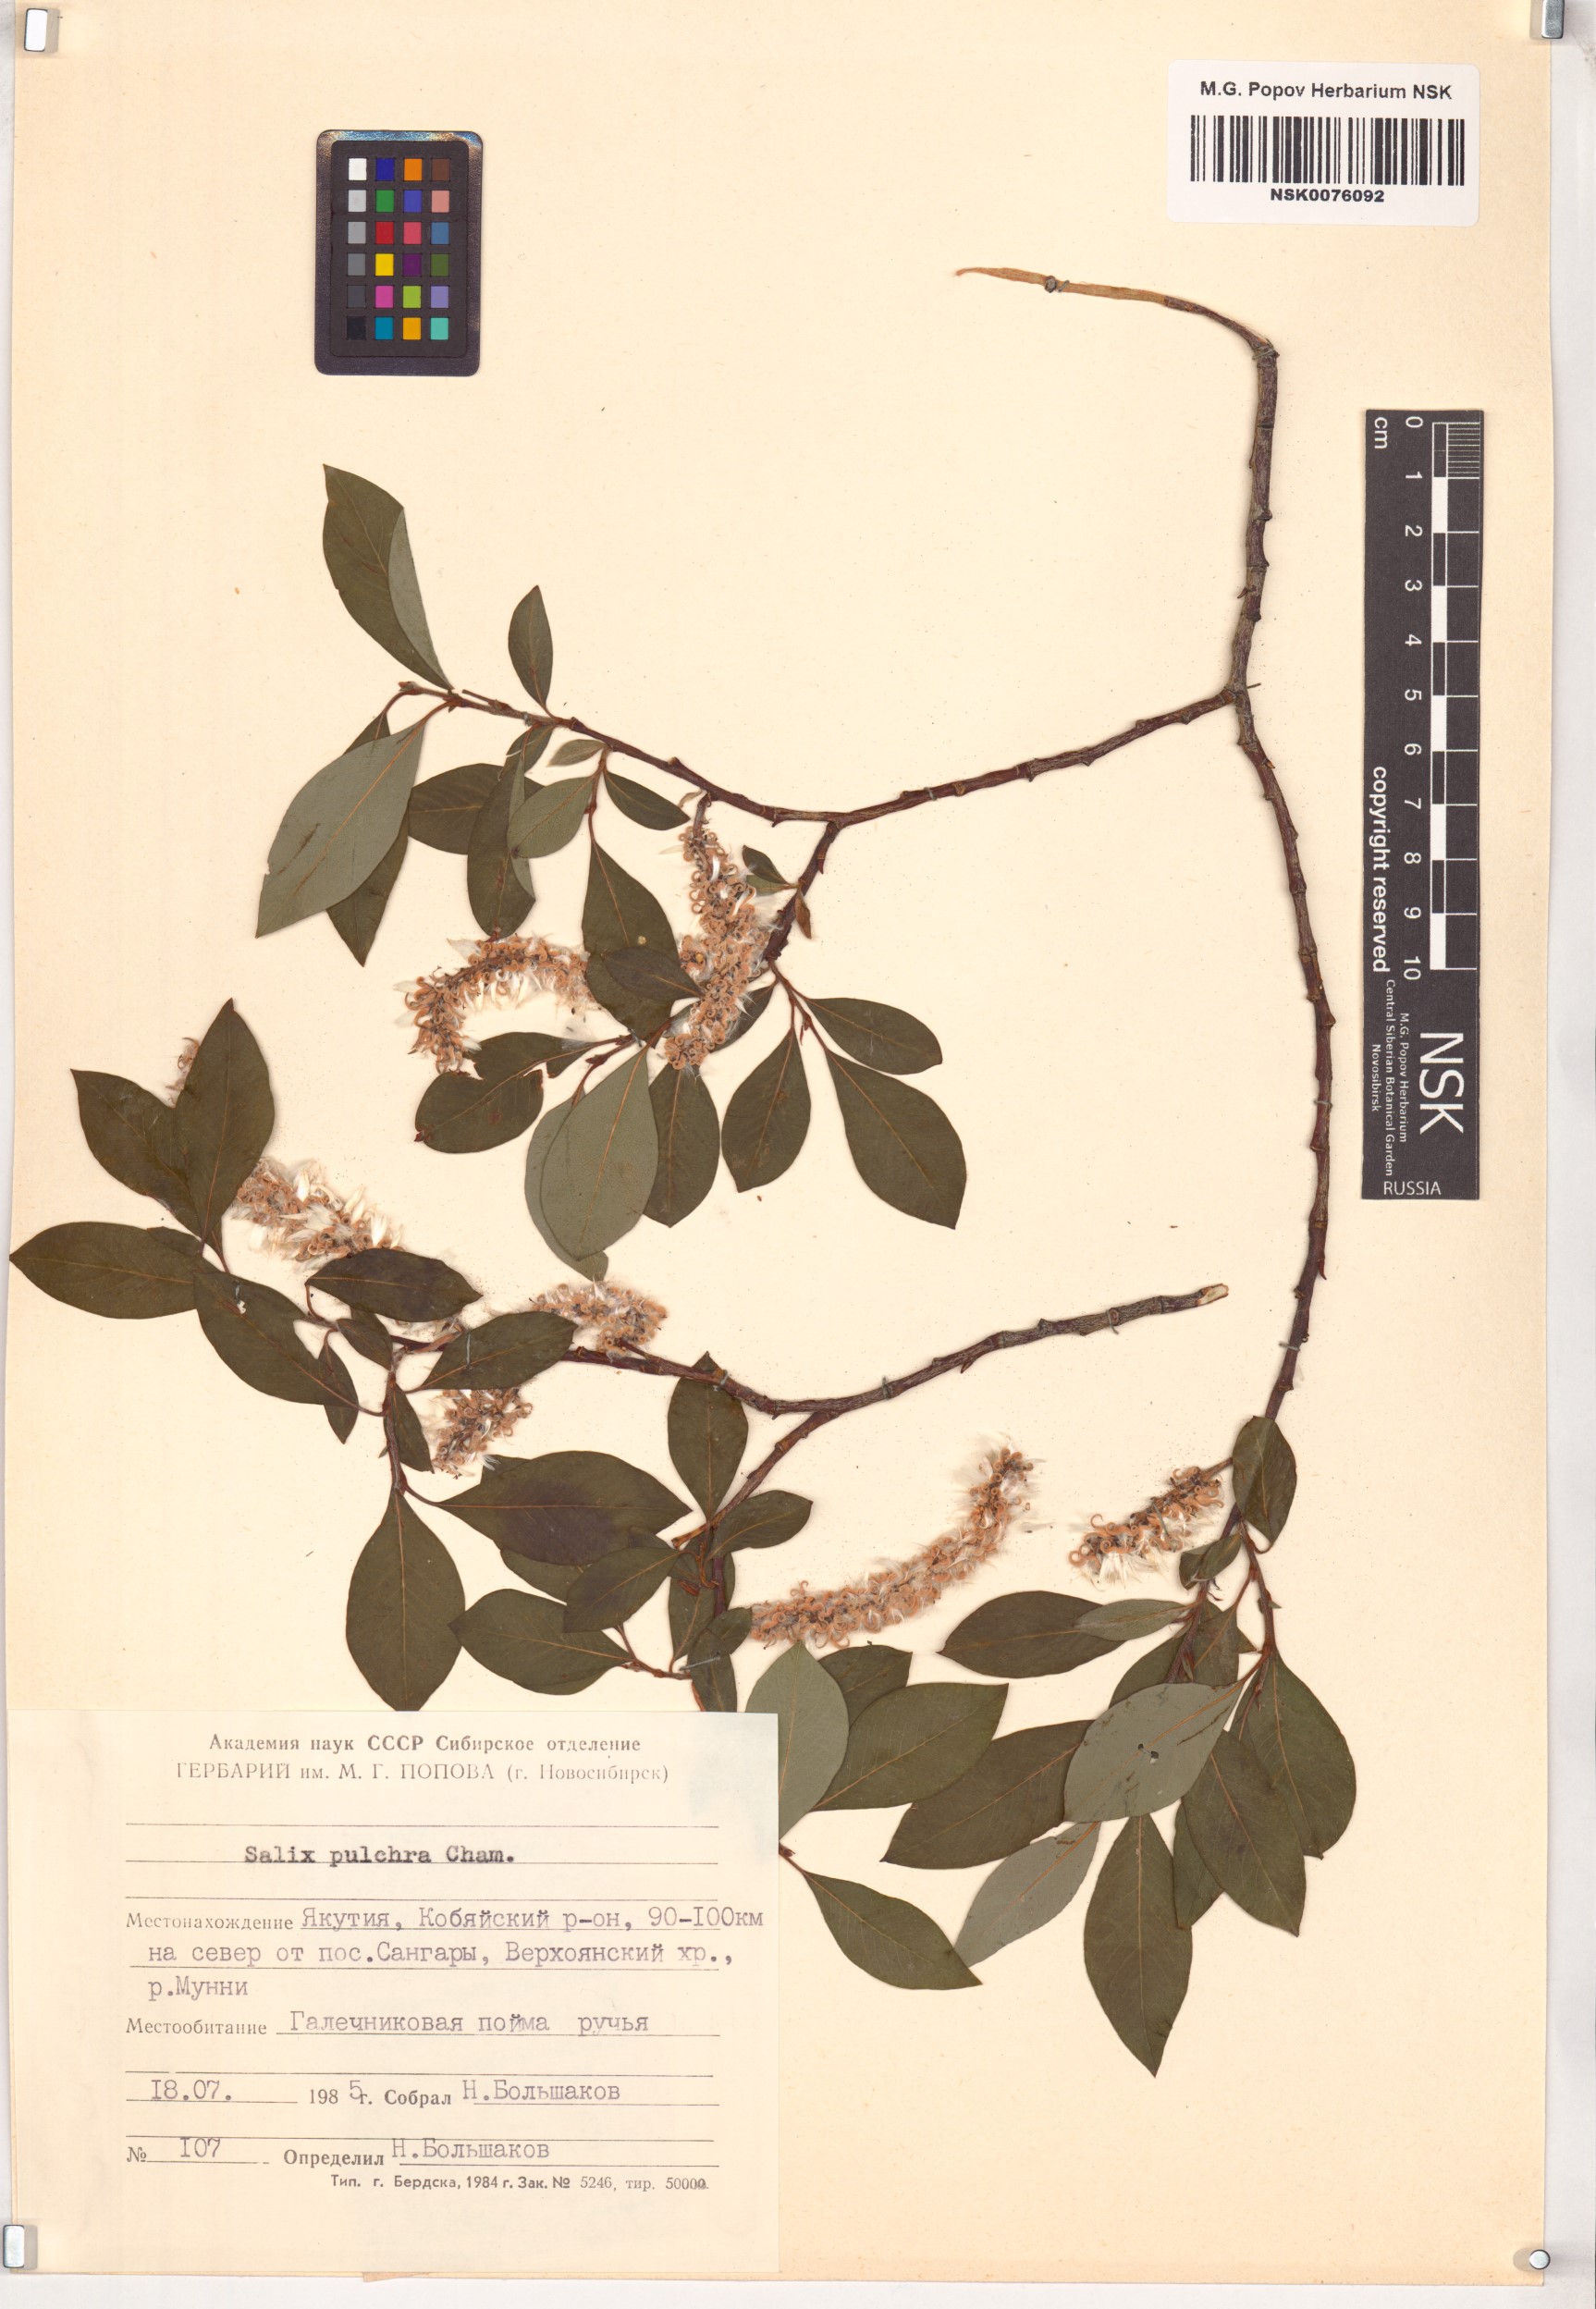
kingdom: Plantae
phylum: Tracheophyta
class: Magnoliopsida
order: Malpighiales
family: Salicaceae
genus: Salix
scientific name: Salix pulchra
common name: Diamond-leaved willow
